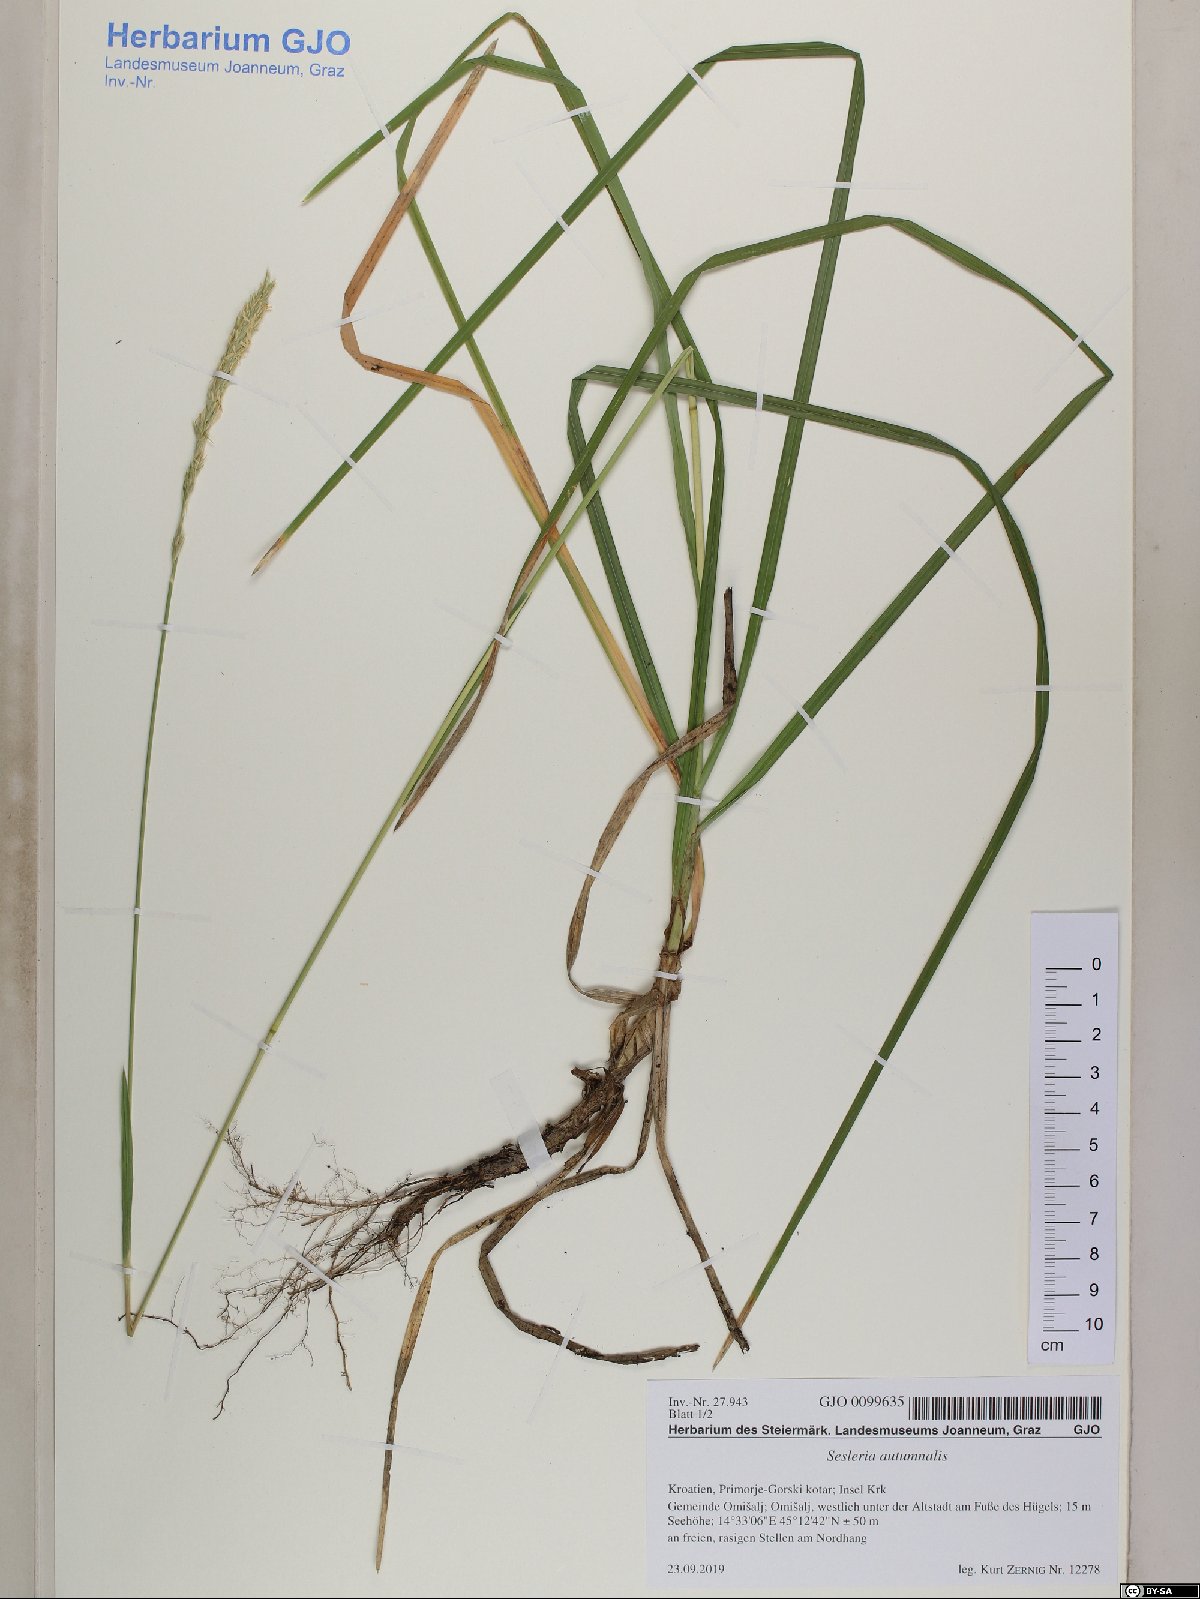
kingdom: Plantae
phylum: Tracheophyta
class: Liliopsida
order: Poales
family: Poaceae
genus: Sesleria
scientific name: Sesleria autumnalis
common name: Autumn moor grass
